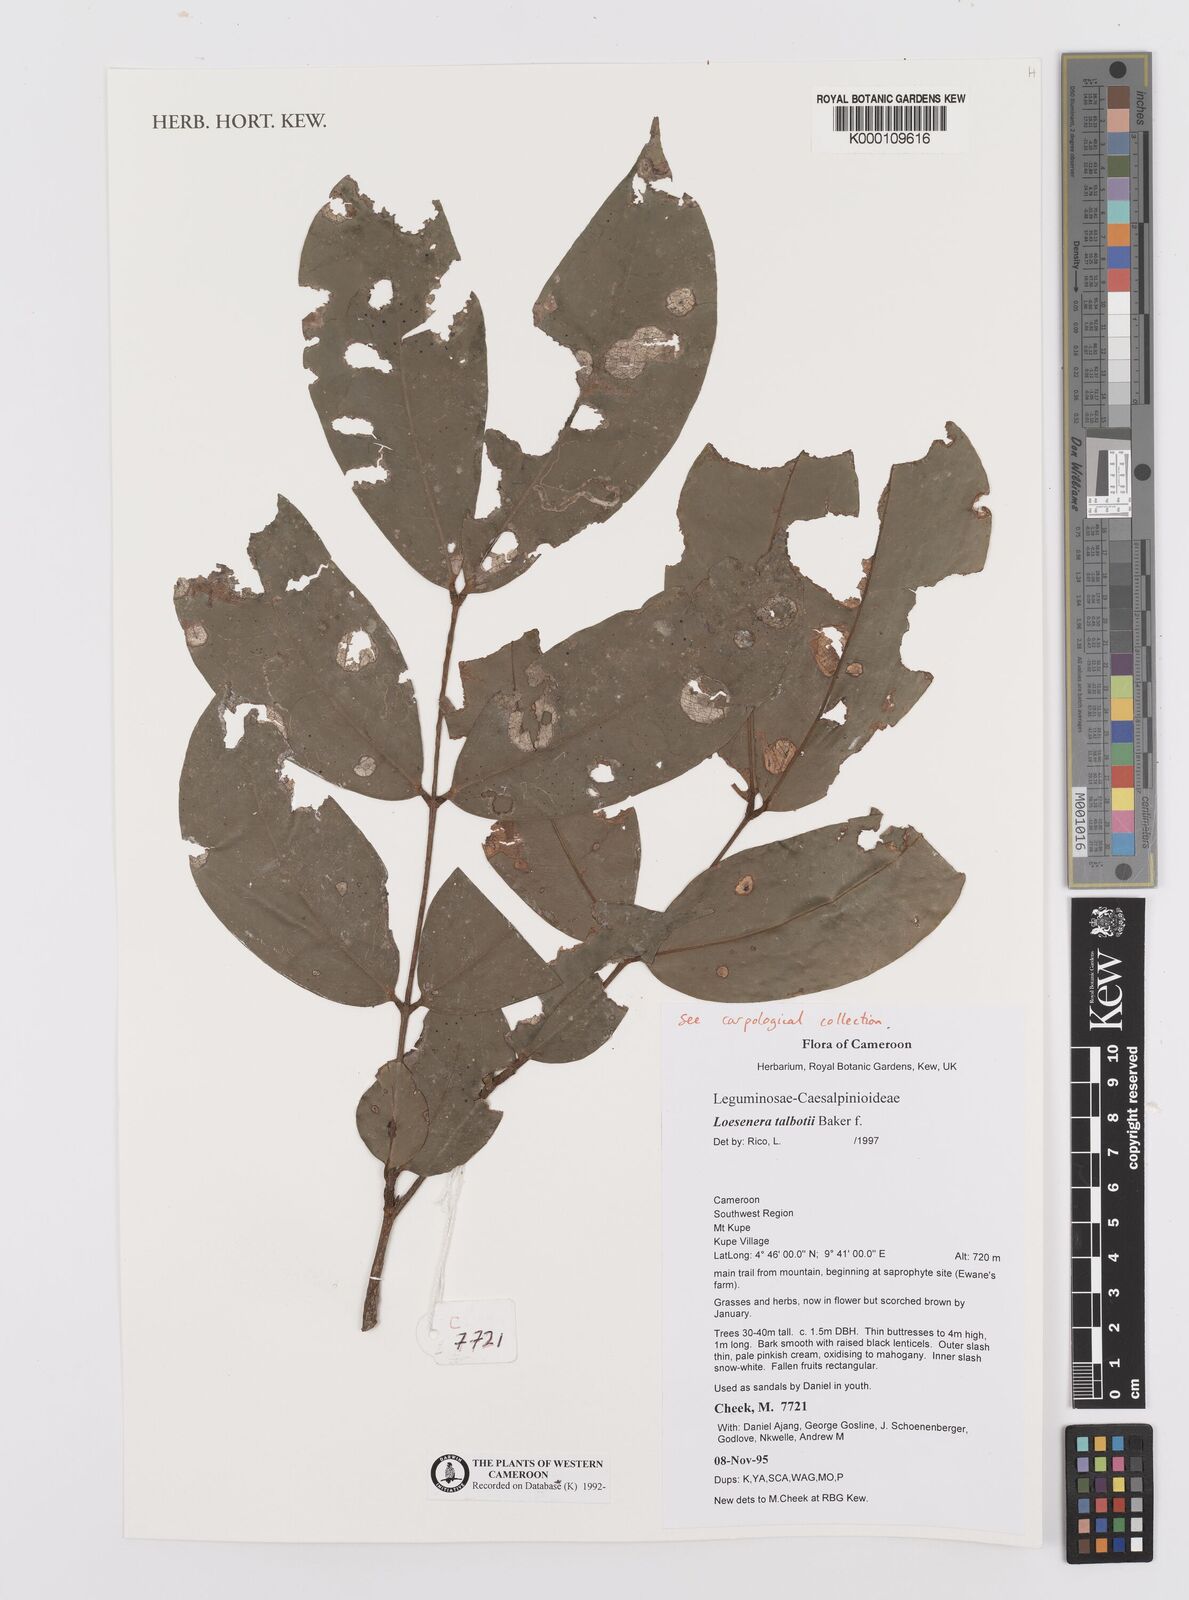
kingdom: Plantae
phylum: Tracheophyta
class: Magnoliopsida
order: Fabales
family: Fabaceae
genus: Loesenera
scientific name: Loesenera talbotii
